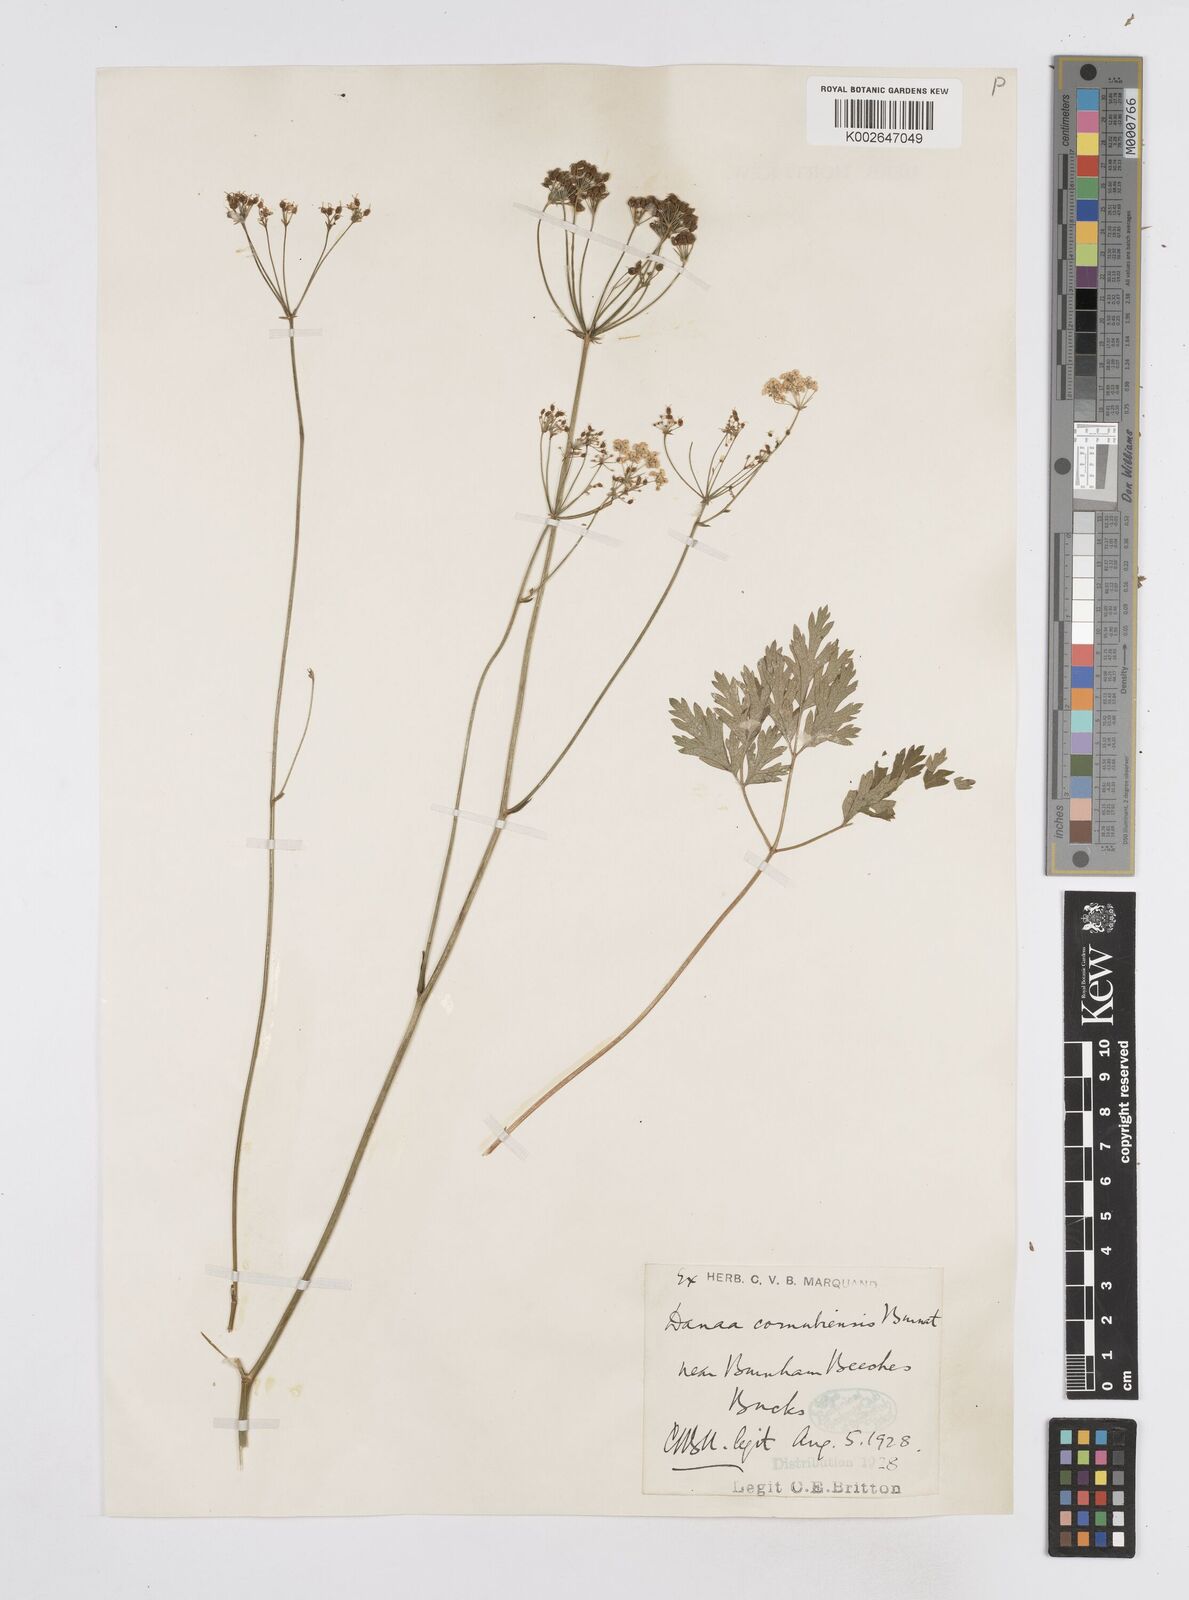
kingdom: Plantae
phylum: Tracheophyta
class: Magnoliopsida
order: Apiales
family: Apiaceae
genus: Physospermum
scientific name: Physospermum cornubiense
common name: Bladderseed
